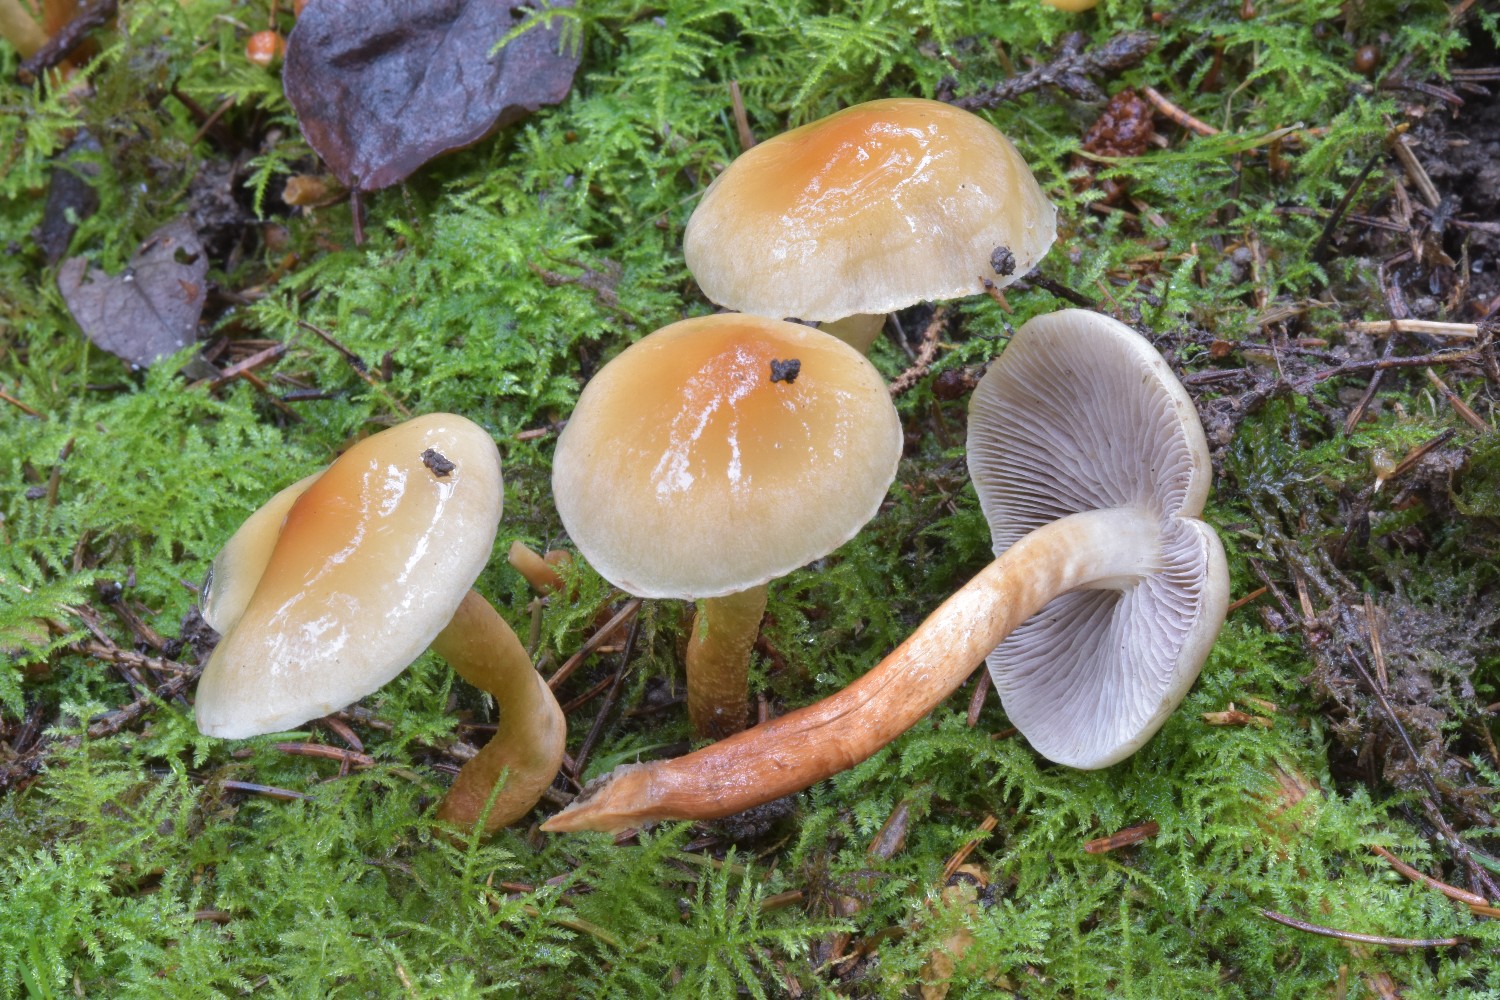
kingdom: Fungi
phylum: Basidiomycota
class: Agaricomycetes
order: Agaricales
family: Strophariaceae
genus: Hypholoma
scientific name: Hypholoma capnoides
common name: gran-svovlhat
